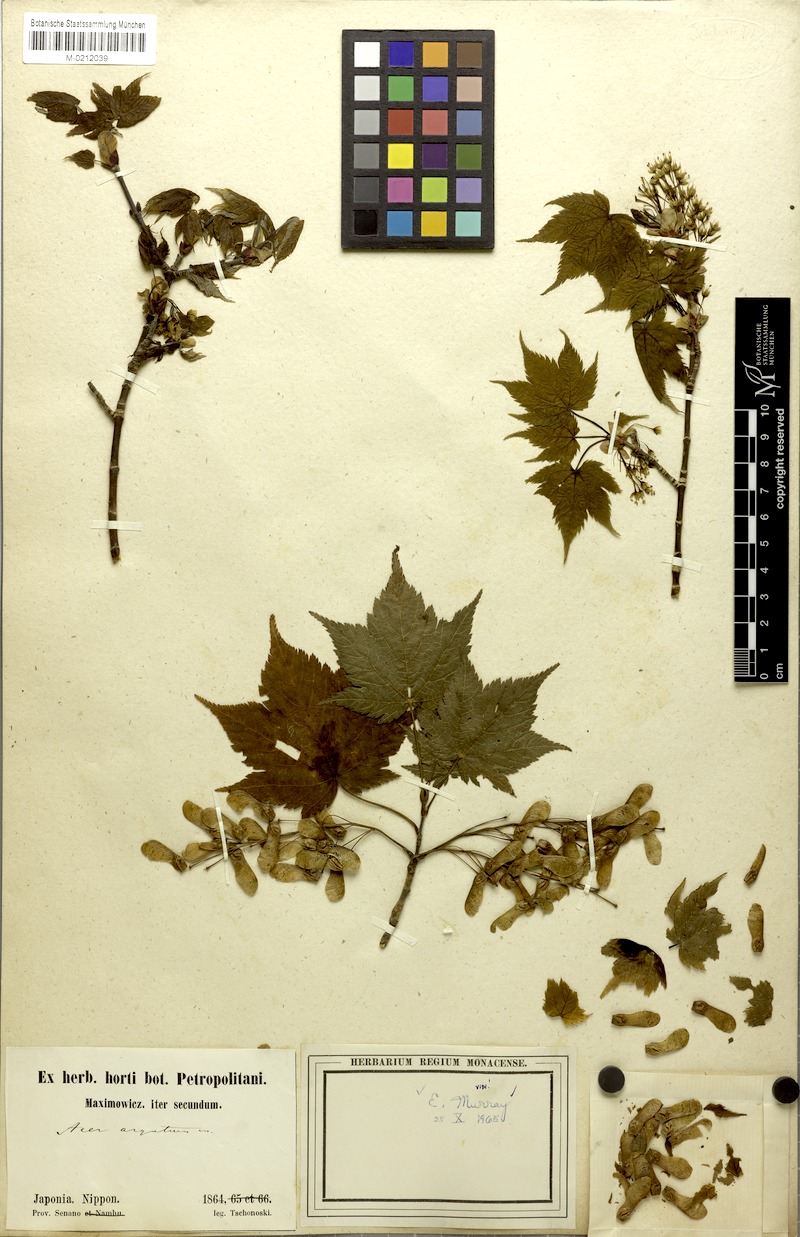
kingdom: Plantae
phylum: Tracheophyta
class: Magnoliopsida
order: Sapindales
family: Sapindaceae
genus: Acer
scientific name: Acer argutum
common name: Pointed-leaf maple
